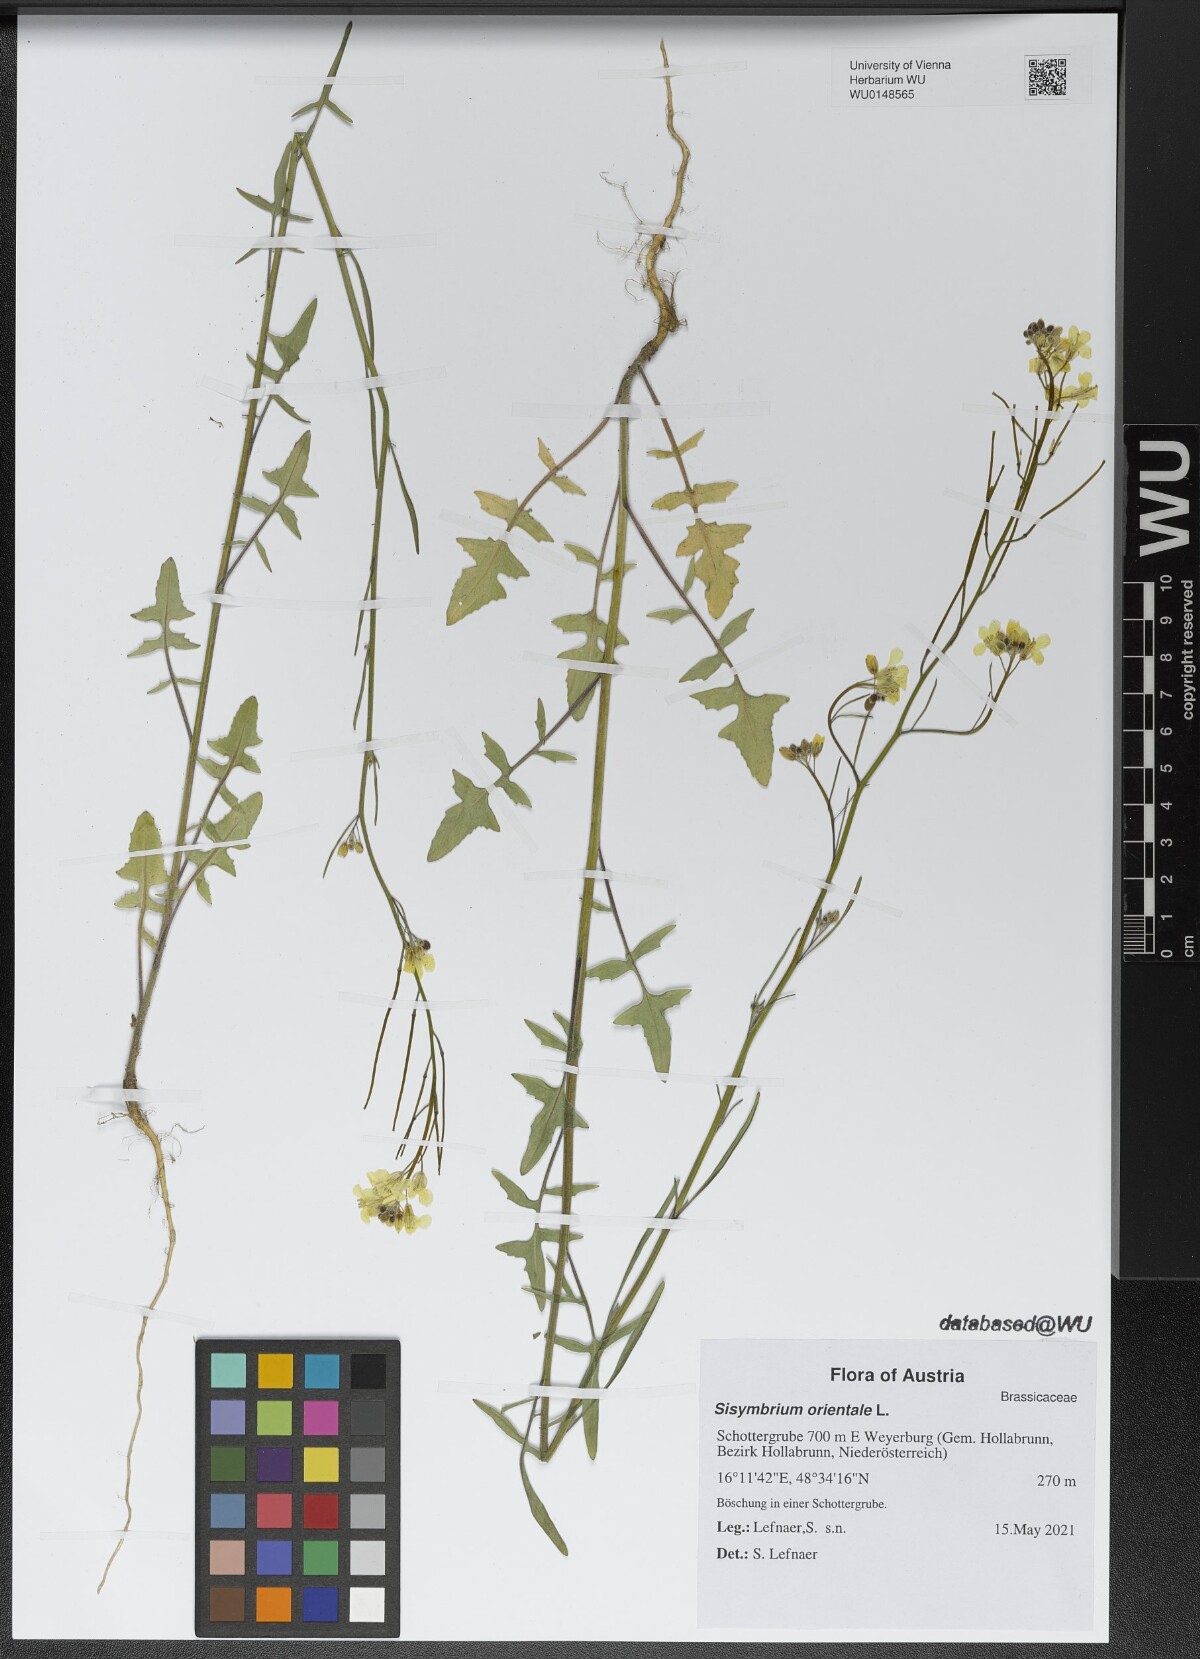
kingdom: Plantae
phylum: Tracheophyta
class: Magnoliopsida
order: Brassicales
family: Brassicaceae
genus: Sisymbrium
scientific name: Sisymbrium orientale
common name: Eastern rocket
